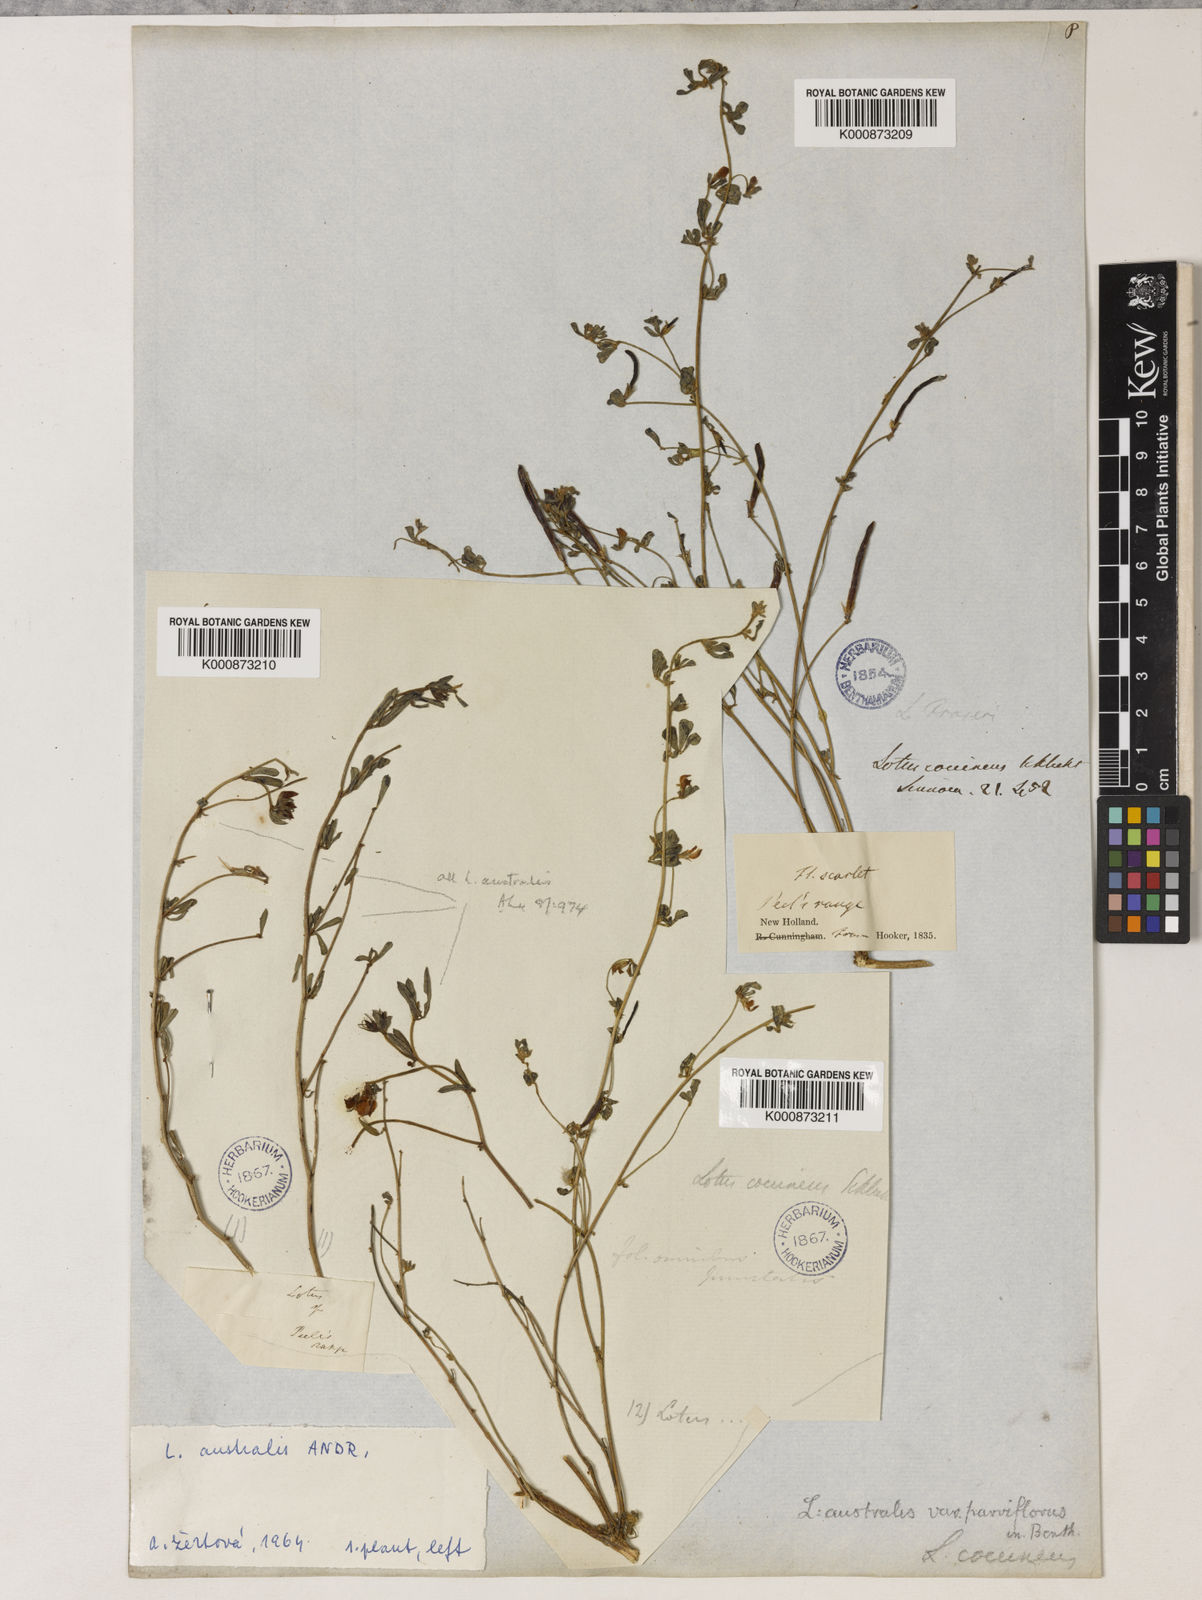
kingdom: Plantae
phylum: Tracheophyta
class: Magnoliopsida
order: Fabales
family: Fabaceae
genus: Lotus
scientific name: Lotus cruentus
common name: Red bird's-foot trefoil
